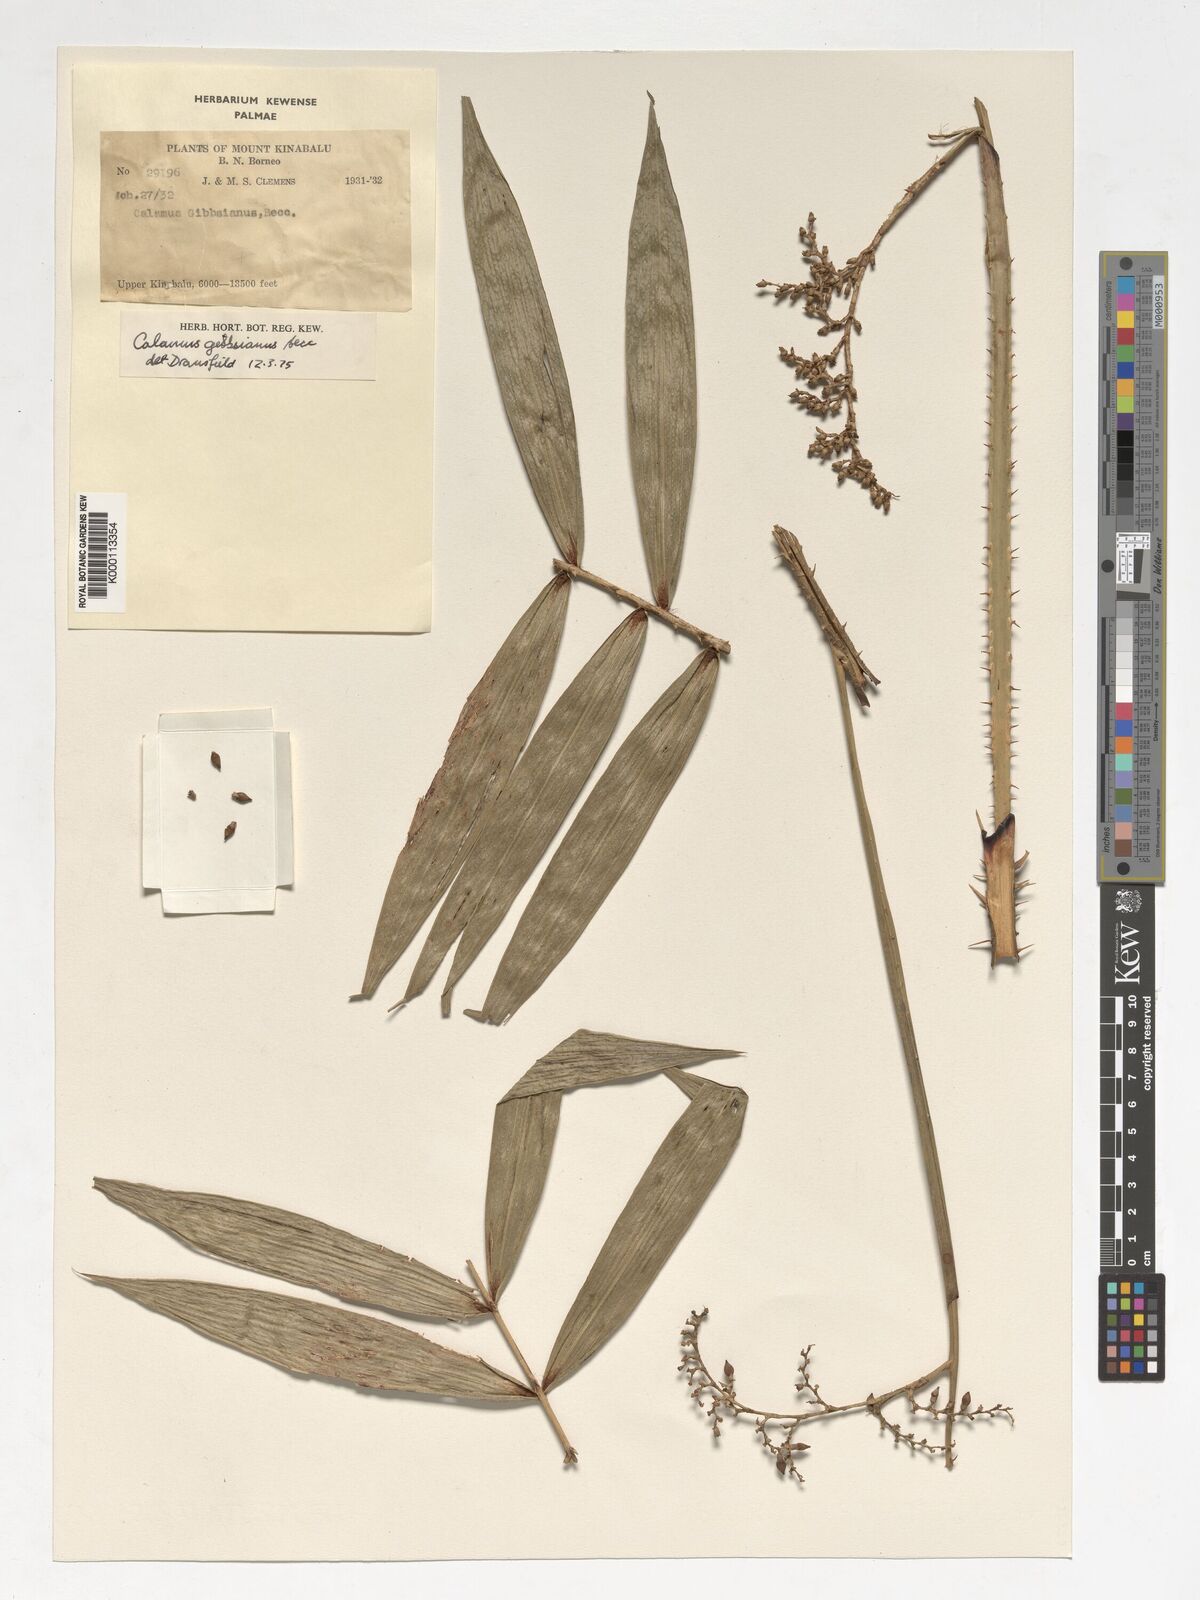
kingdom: Plantae
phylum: Tracheophyta
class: Liliopsida
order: Arecales
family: Arecaceae
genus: Calamus
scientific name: Calamus gibbsianus
